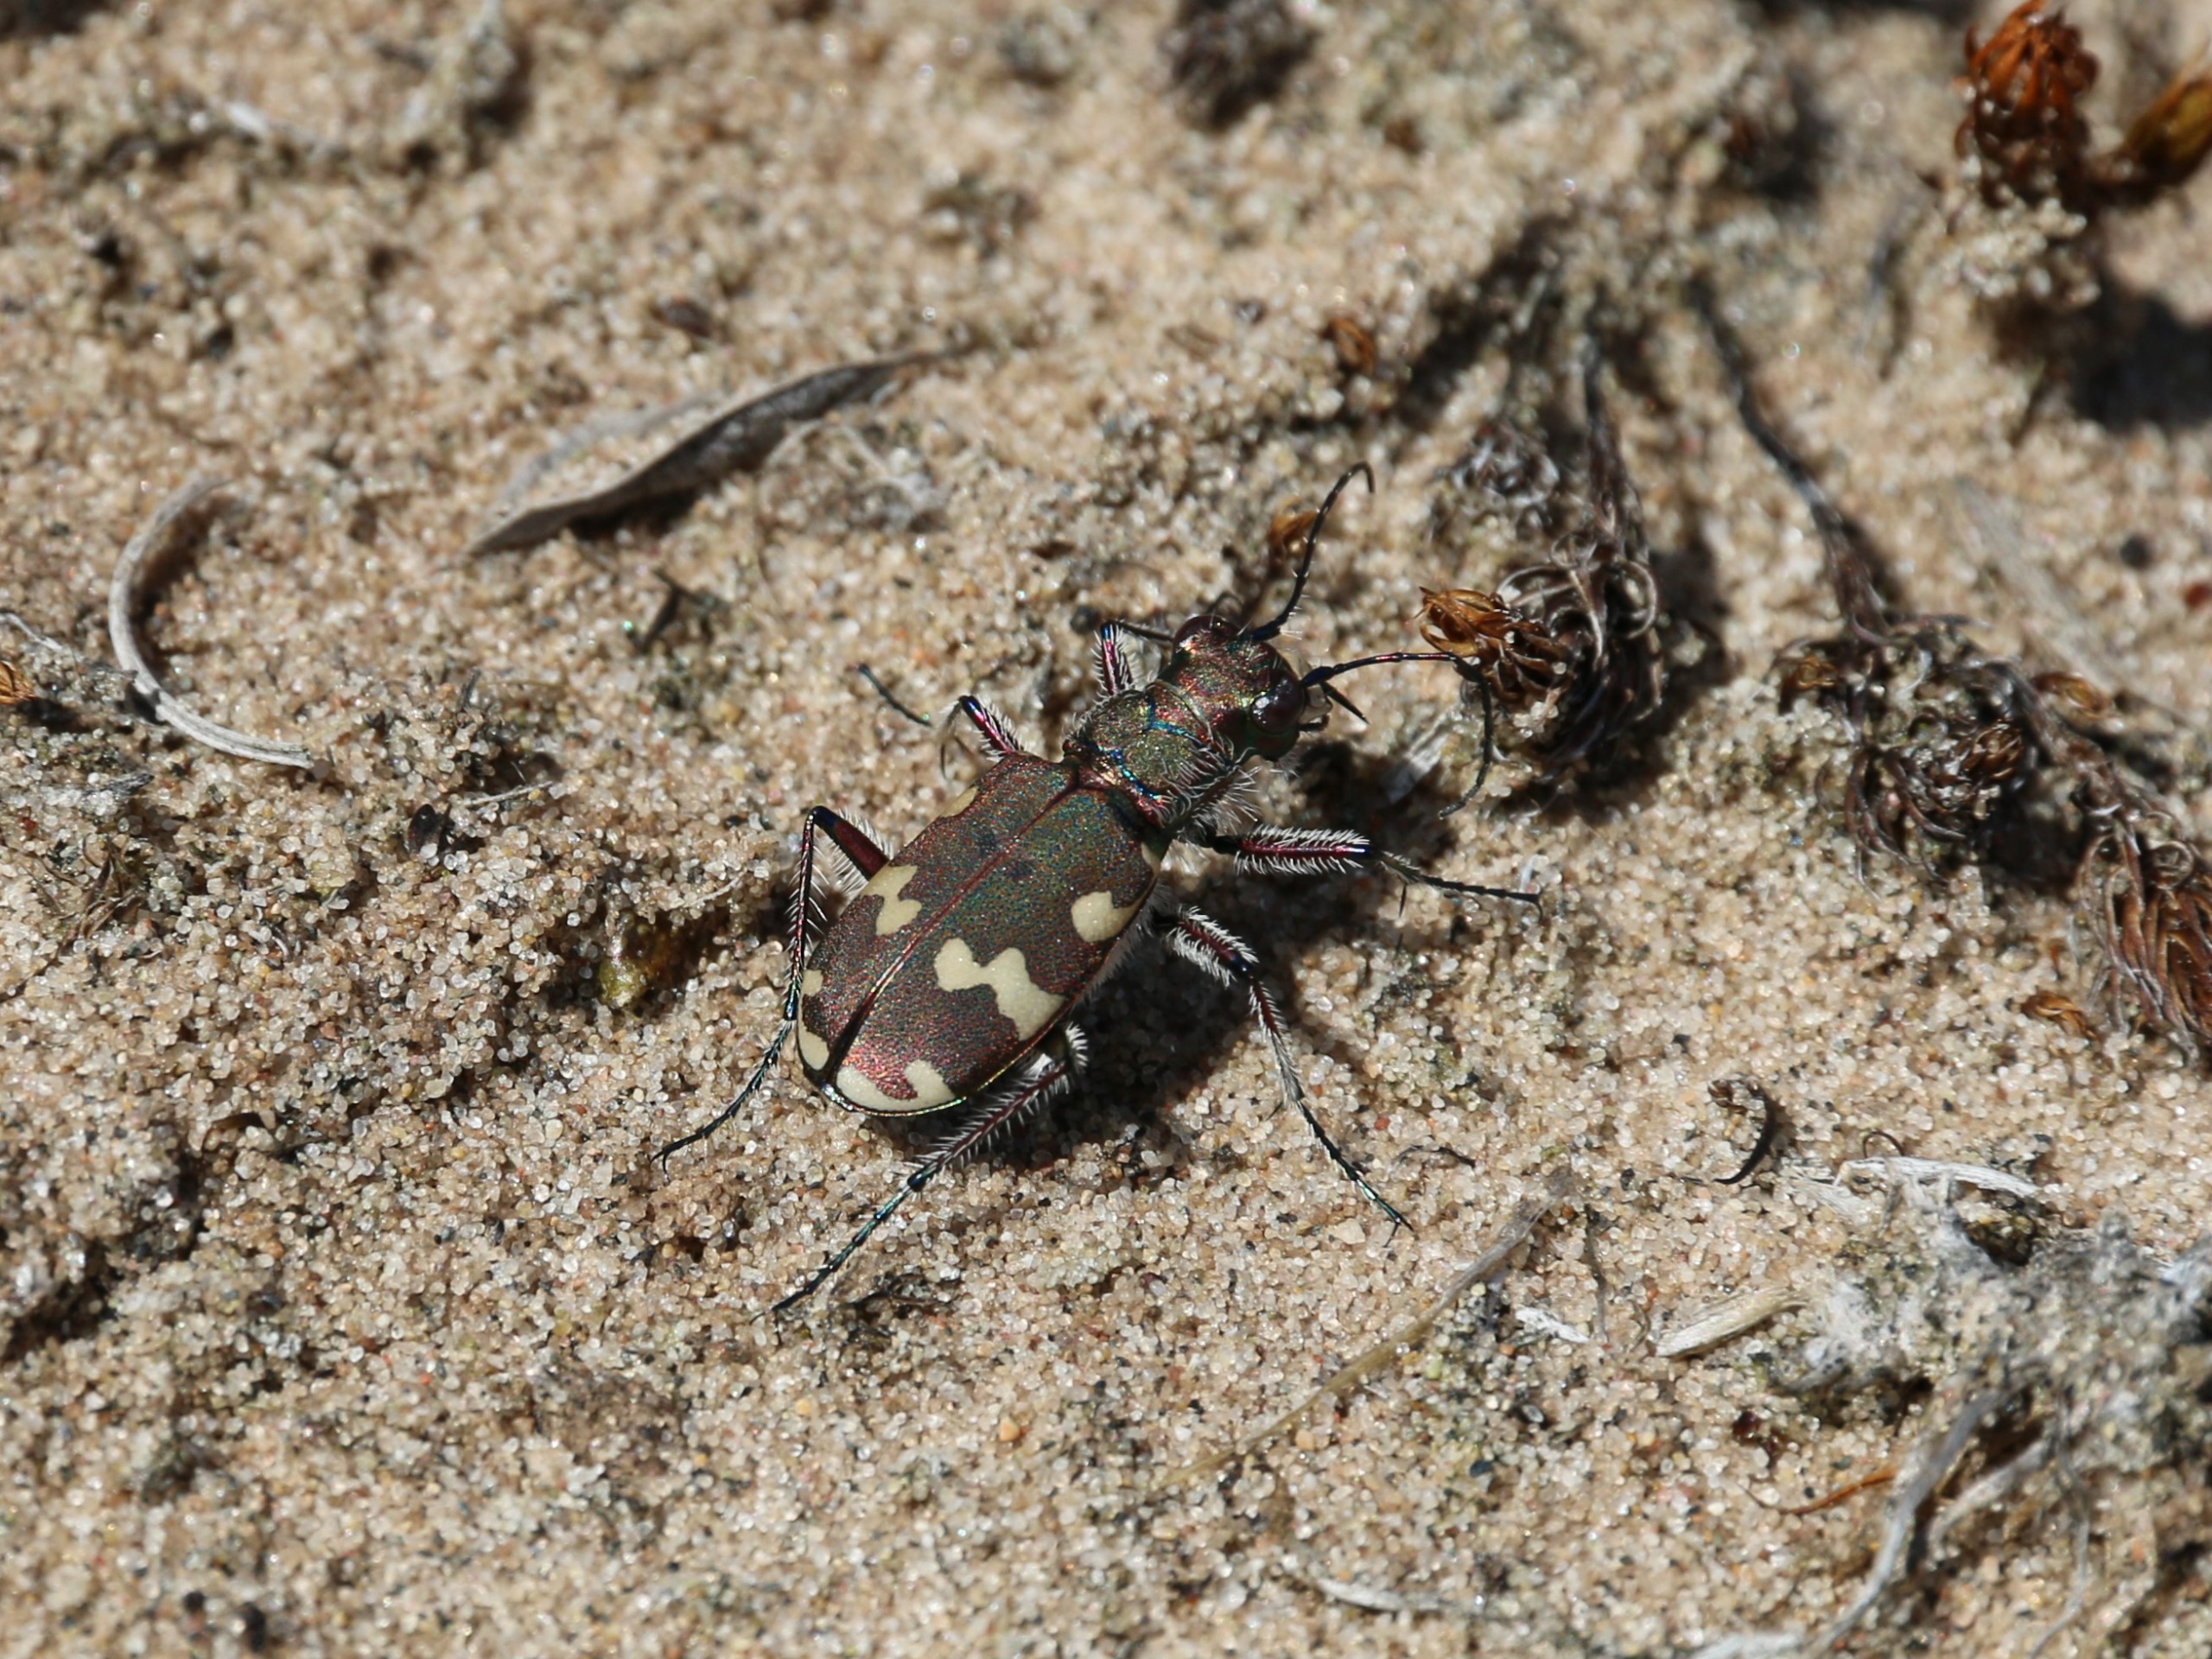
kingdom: Animalia
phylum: Arthropoda
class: Insecta
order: Coleoptera
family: Carabidae
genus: Cicindela
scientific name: Cicindela hybrida
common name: Brun sandspringer
